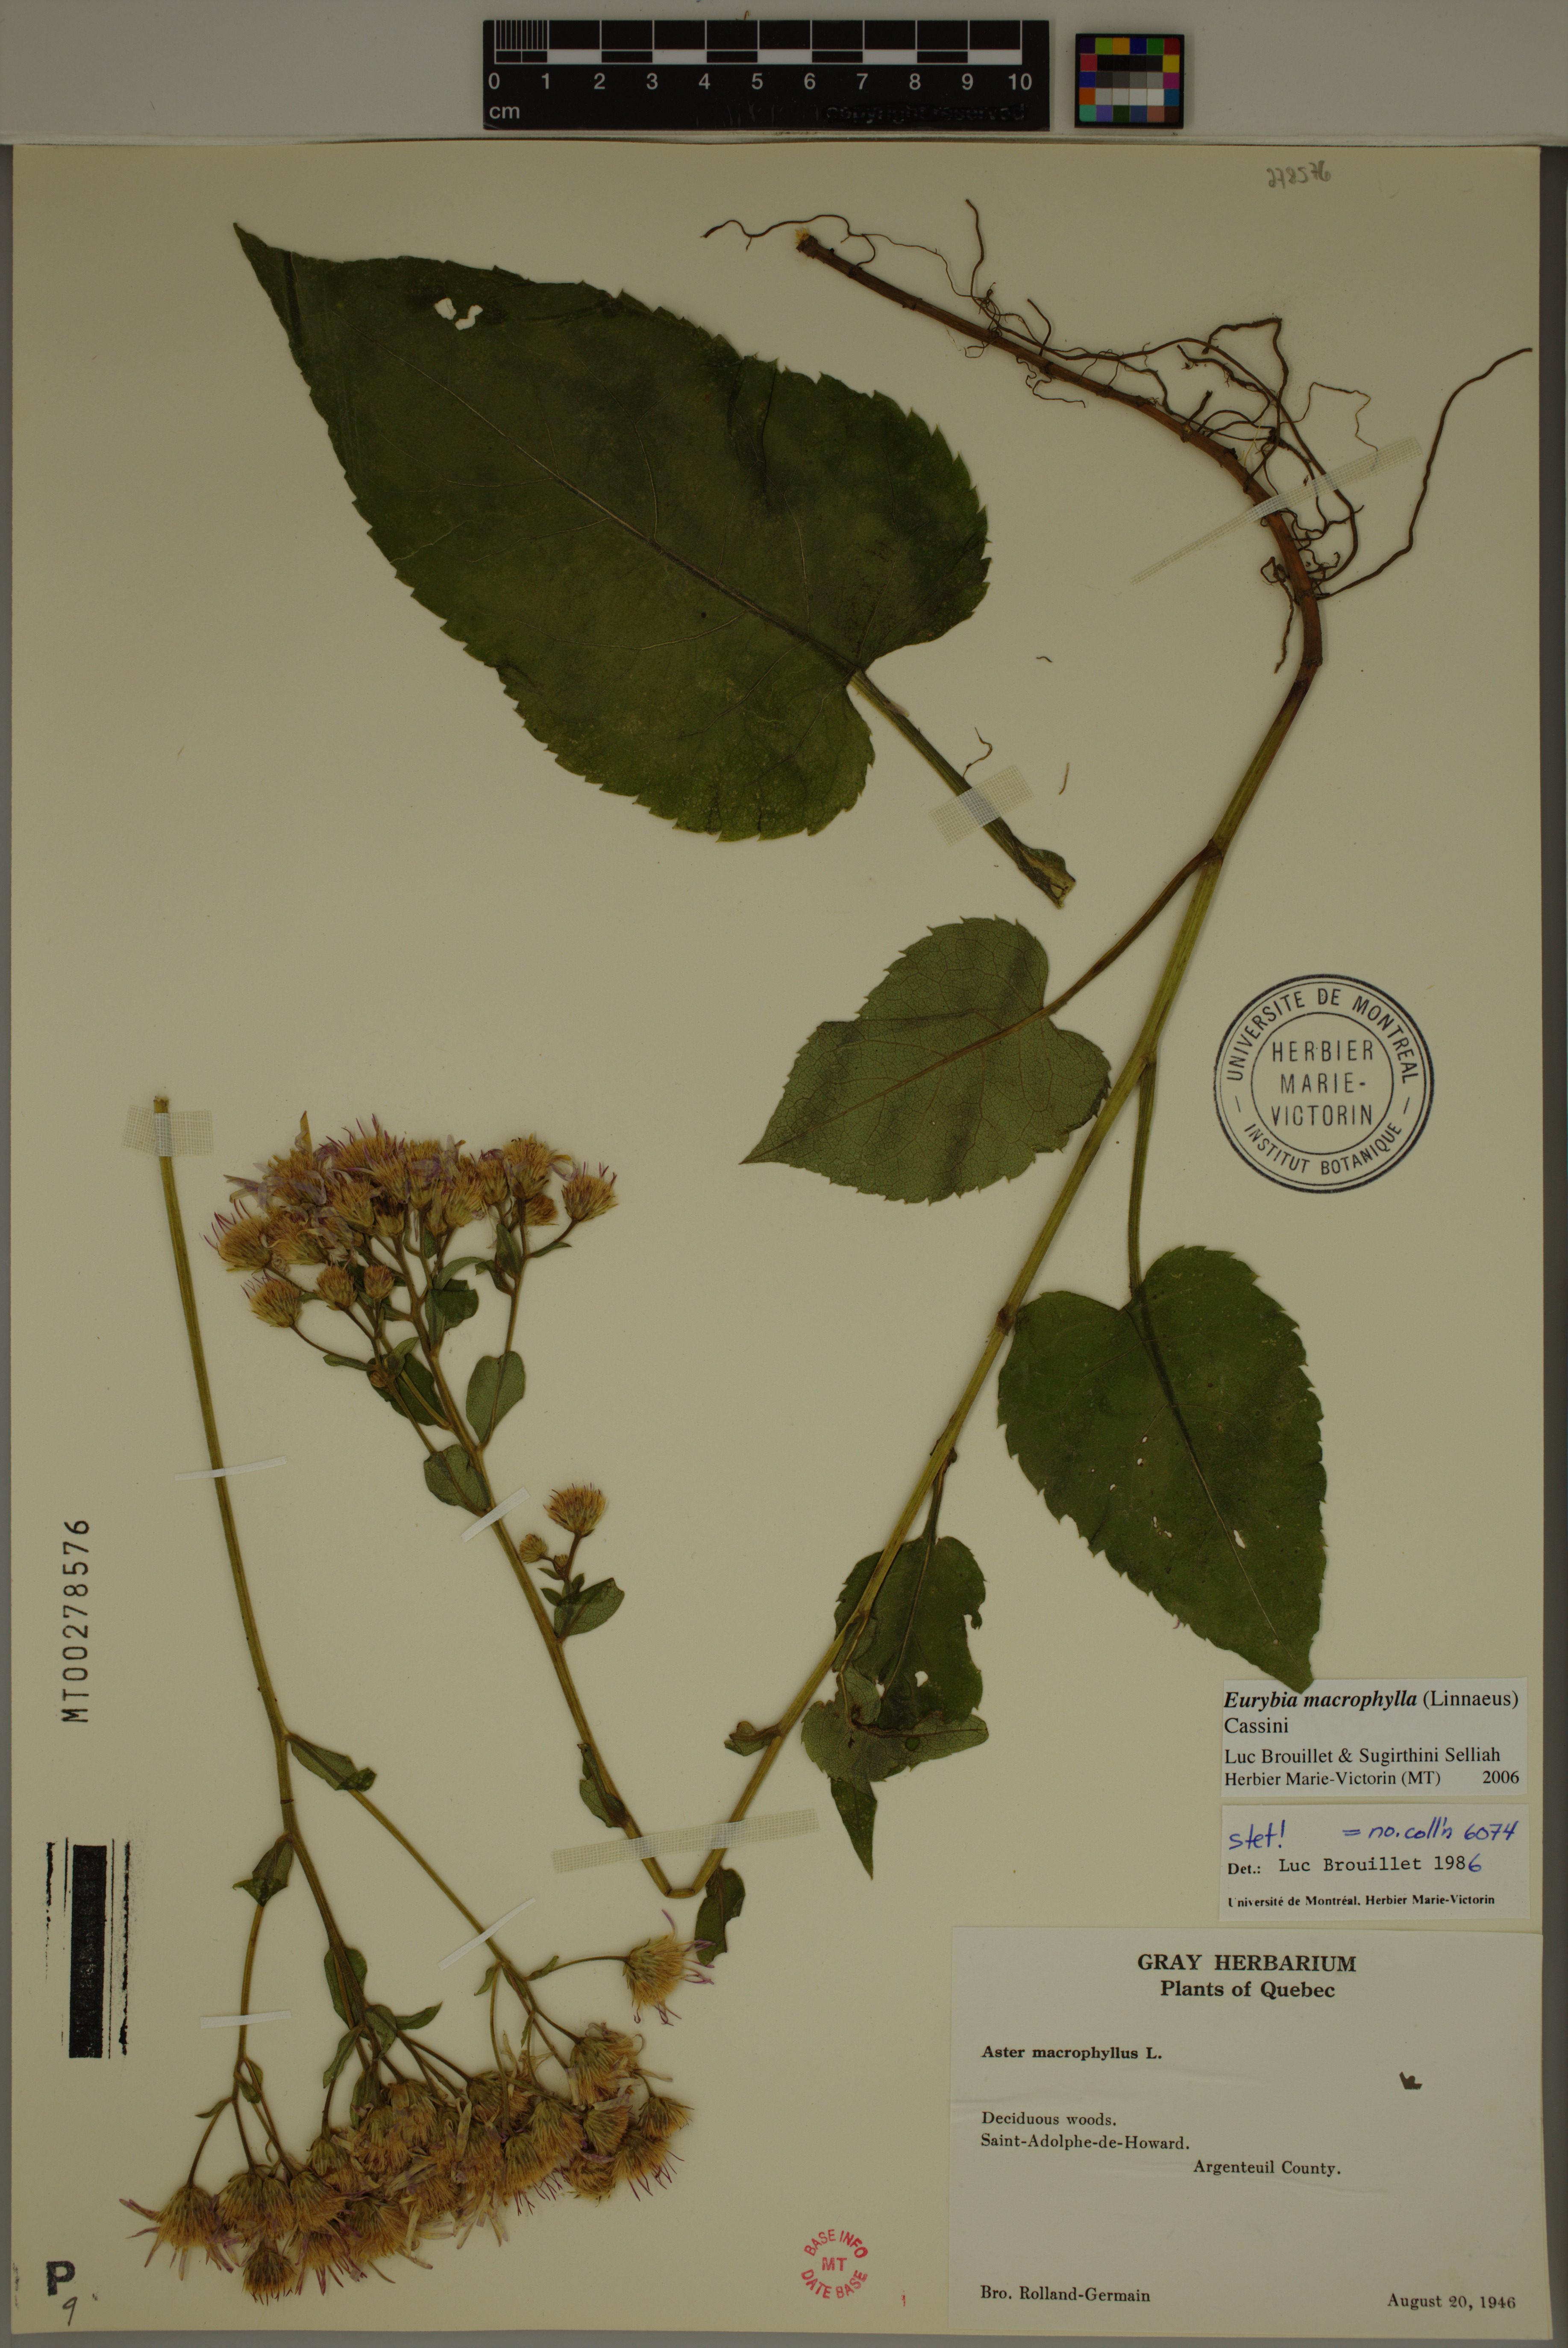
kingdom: Plantae
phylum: Tracheophyta
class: Magnoliopsida
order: Asterales
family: Asteraceae
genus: Eurybia
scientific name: Eurybia macrophylla
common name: Big-leaved aster
